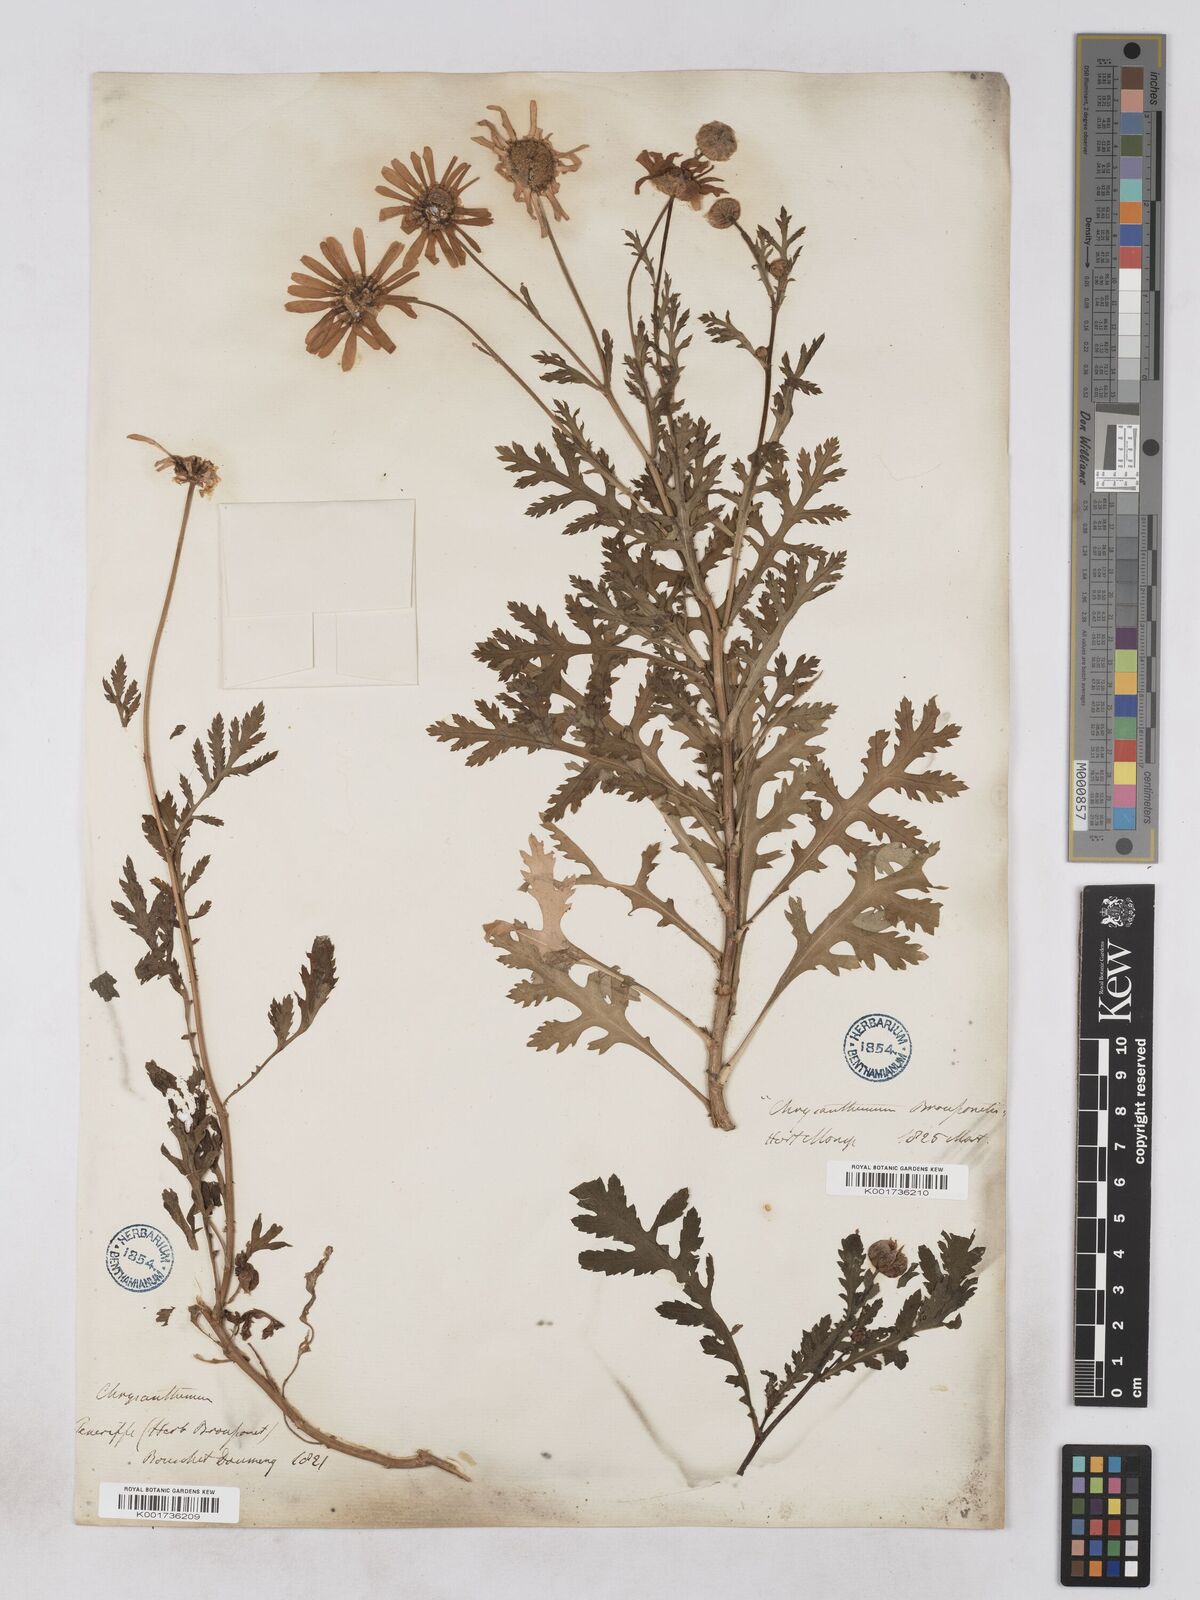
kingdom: Plantae
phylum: Tracheophyta
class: Magnoliopsida
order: Asterales
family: Asteraceae
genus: Argyranthemum
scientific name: Argyranthemum broussonetii
